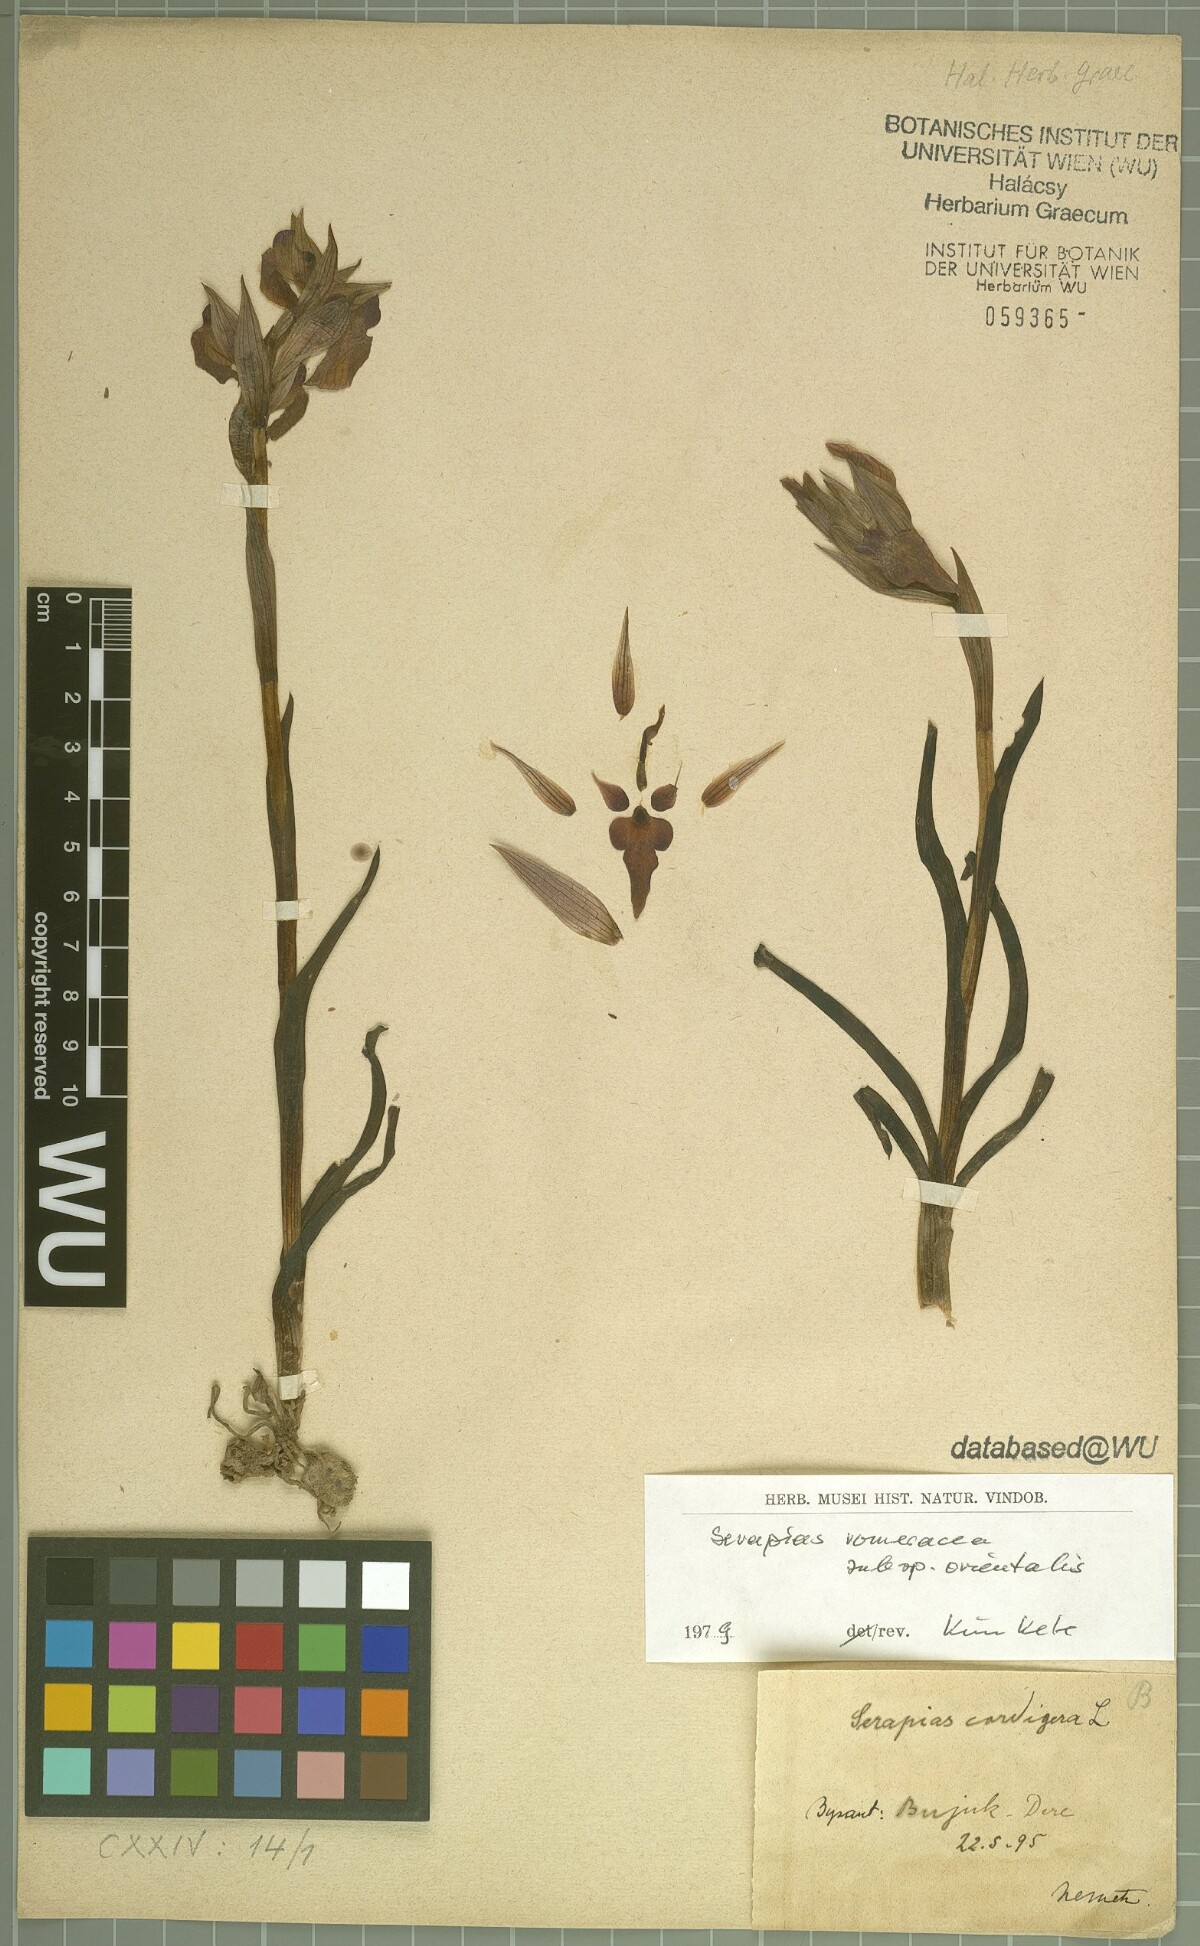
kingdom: Plantae
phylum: Tracheophyta
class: Liliopsida
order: Asparagales
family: Orchidaceae
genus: Serapias
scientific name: Serapias orientalis
